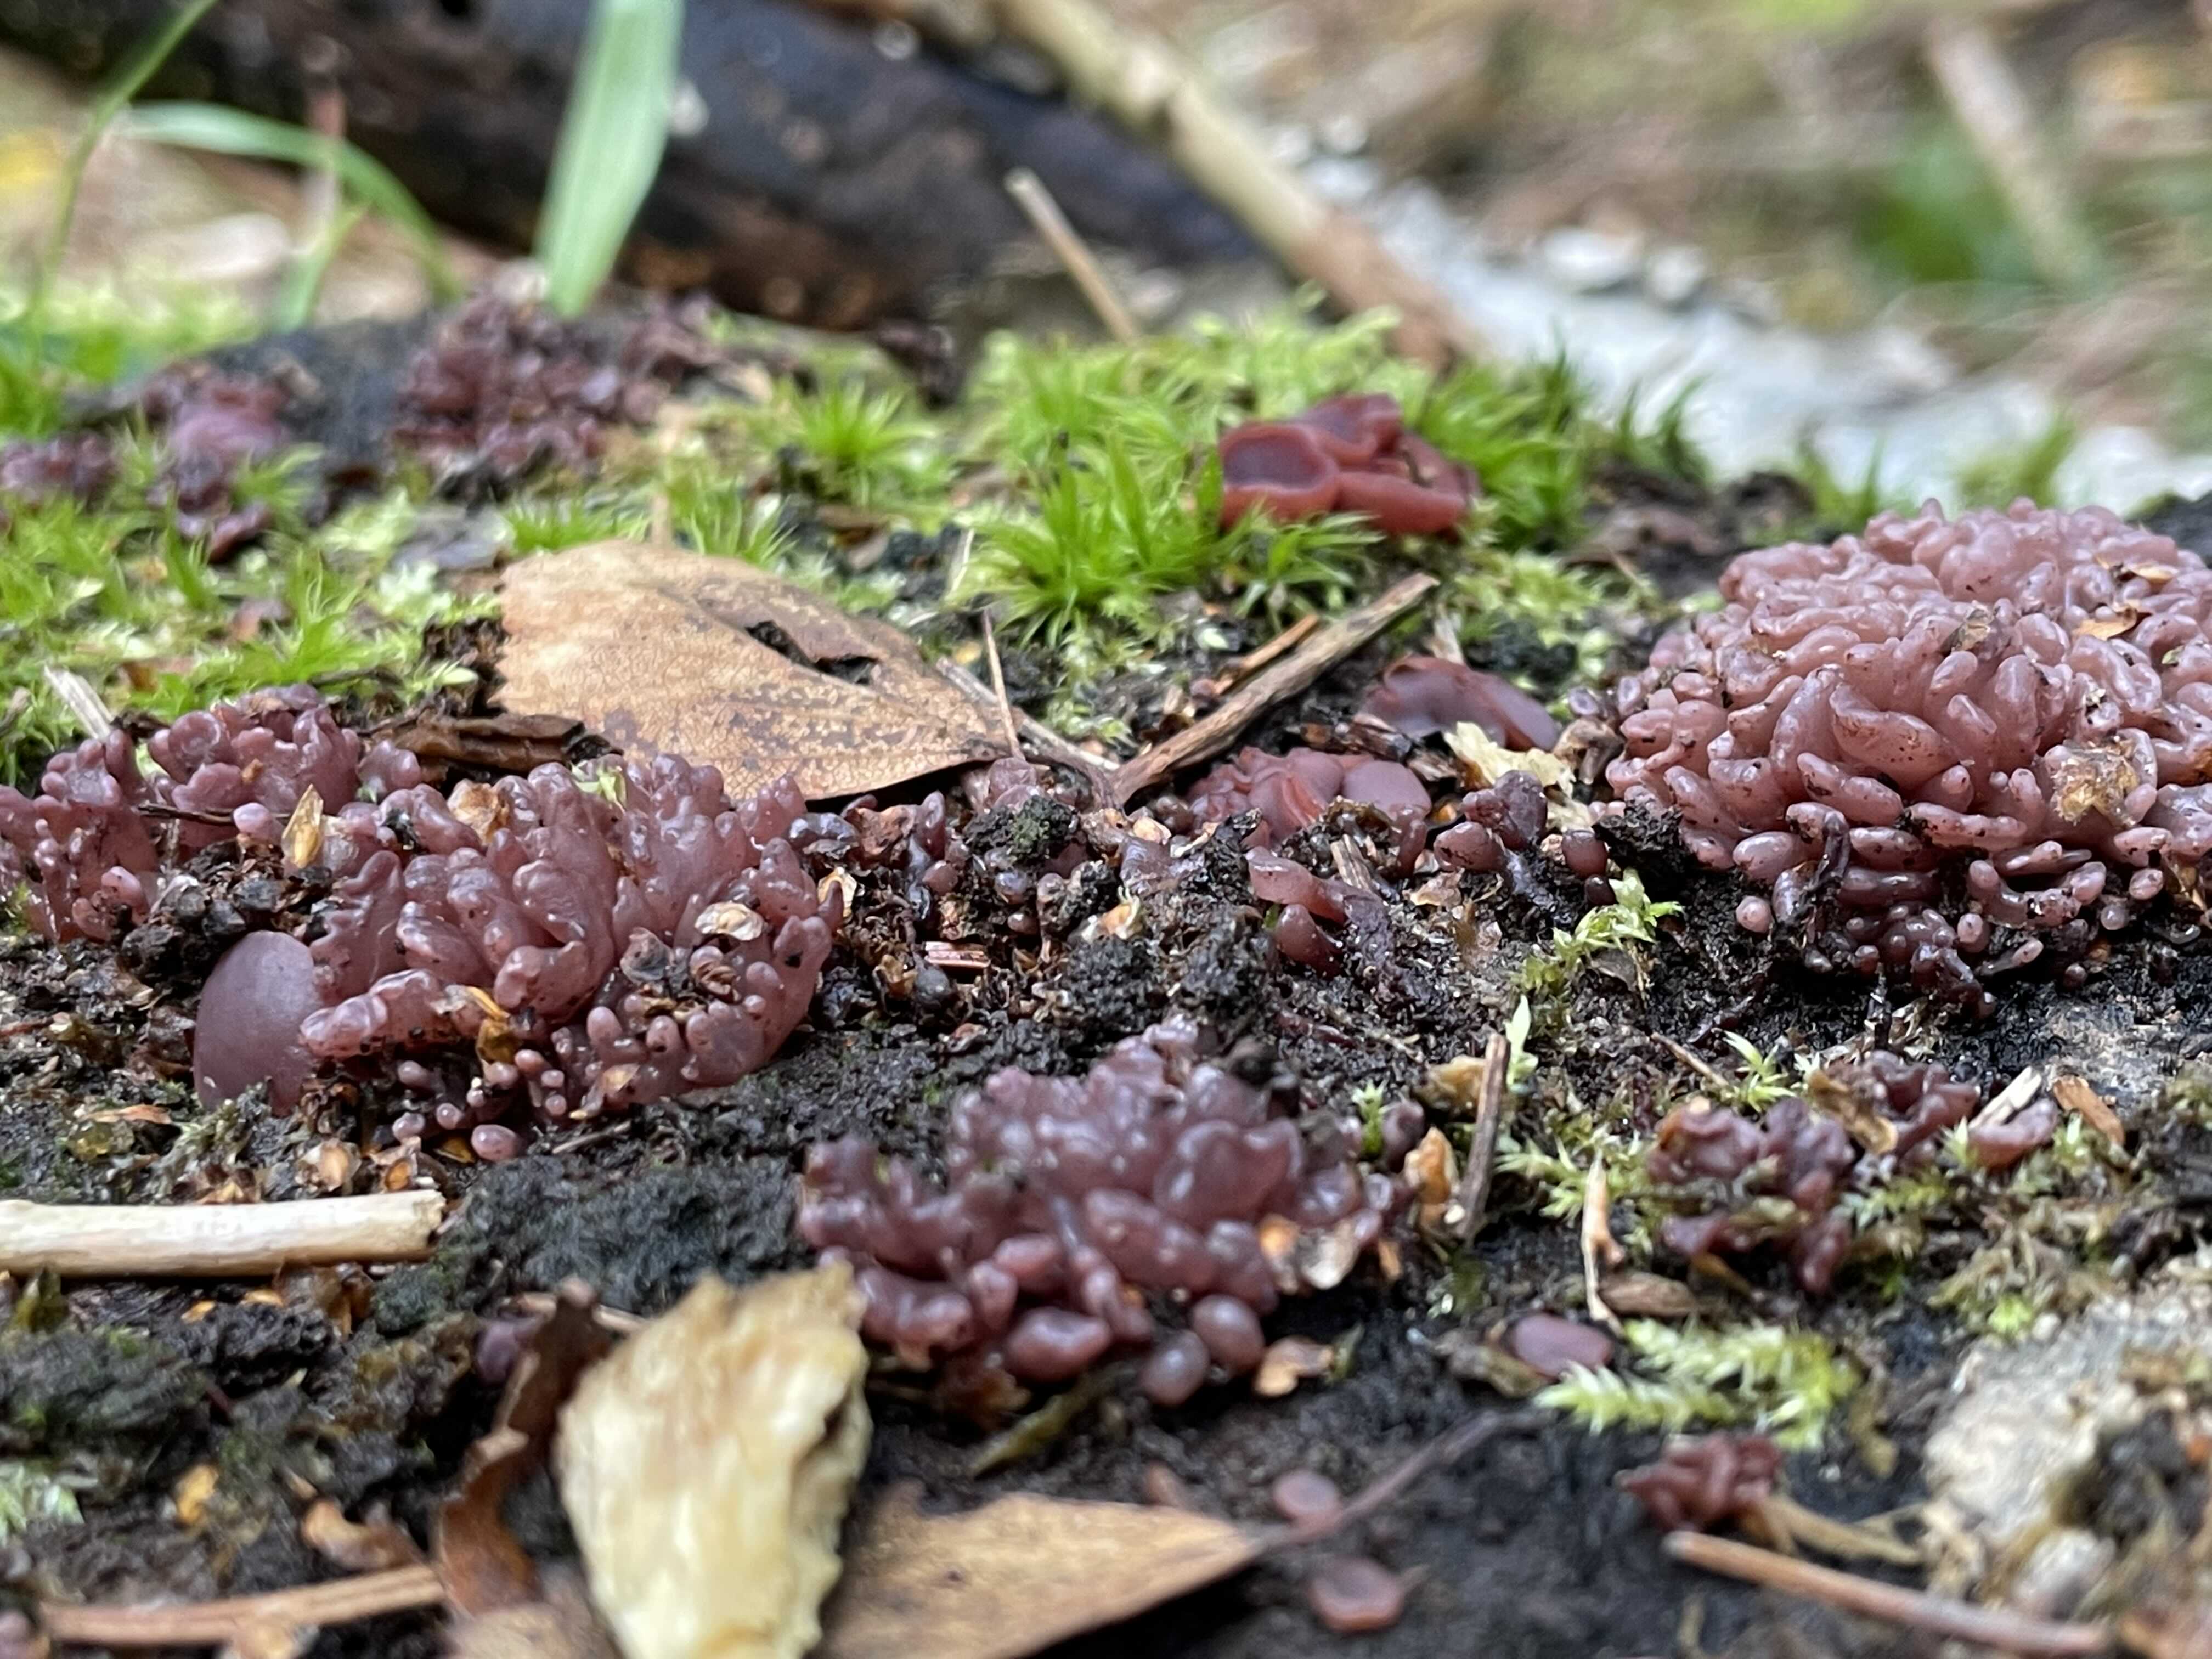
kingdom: Fungi
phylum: Ascomycota
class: Leotiomycetes
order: Helotiales
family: Gelatinodiscaceae
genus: Ascocoryne
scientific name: Ascocoryne sarcoides
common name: rødlilla sejskive
